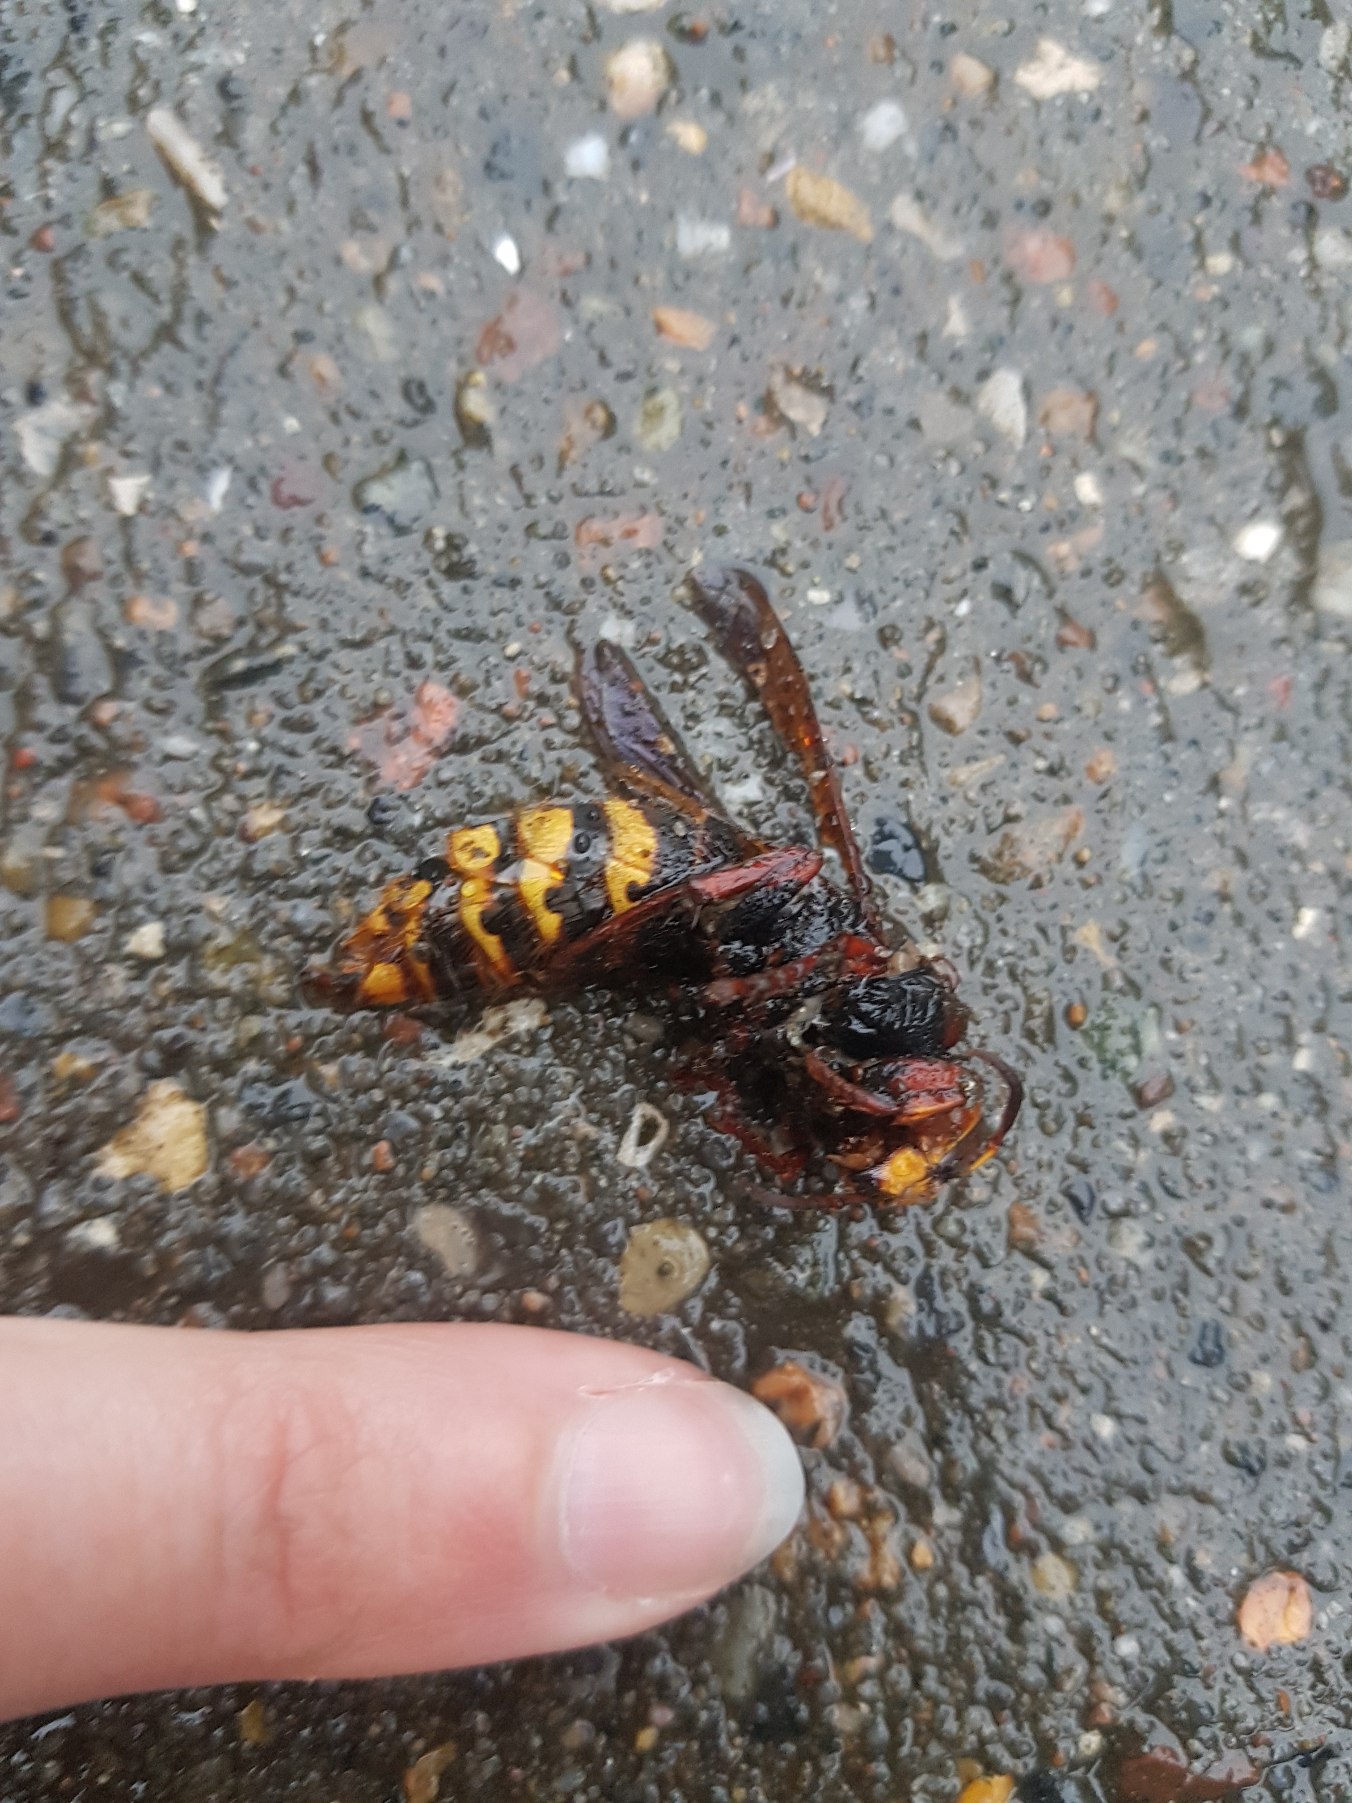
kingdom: Animalia
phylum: Arthropoda
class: Insecta
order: Hymenoptera
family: Vespidae
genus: Vespa
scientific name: Vespa crabro
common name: Stor gedehams
